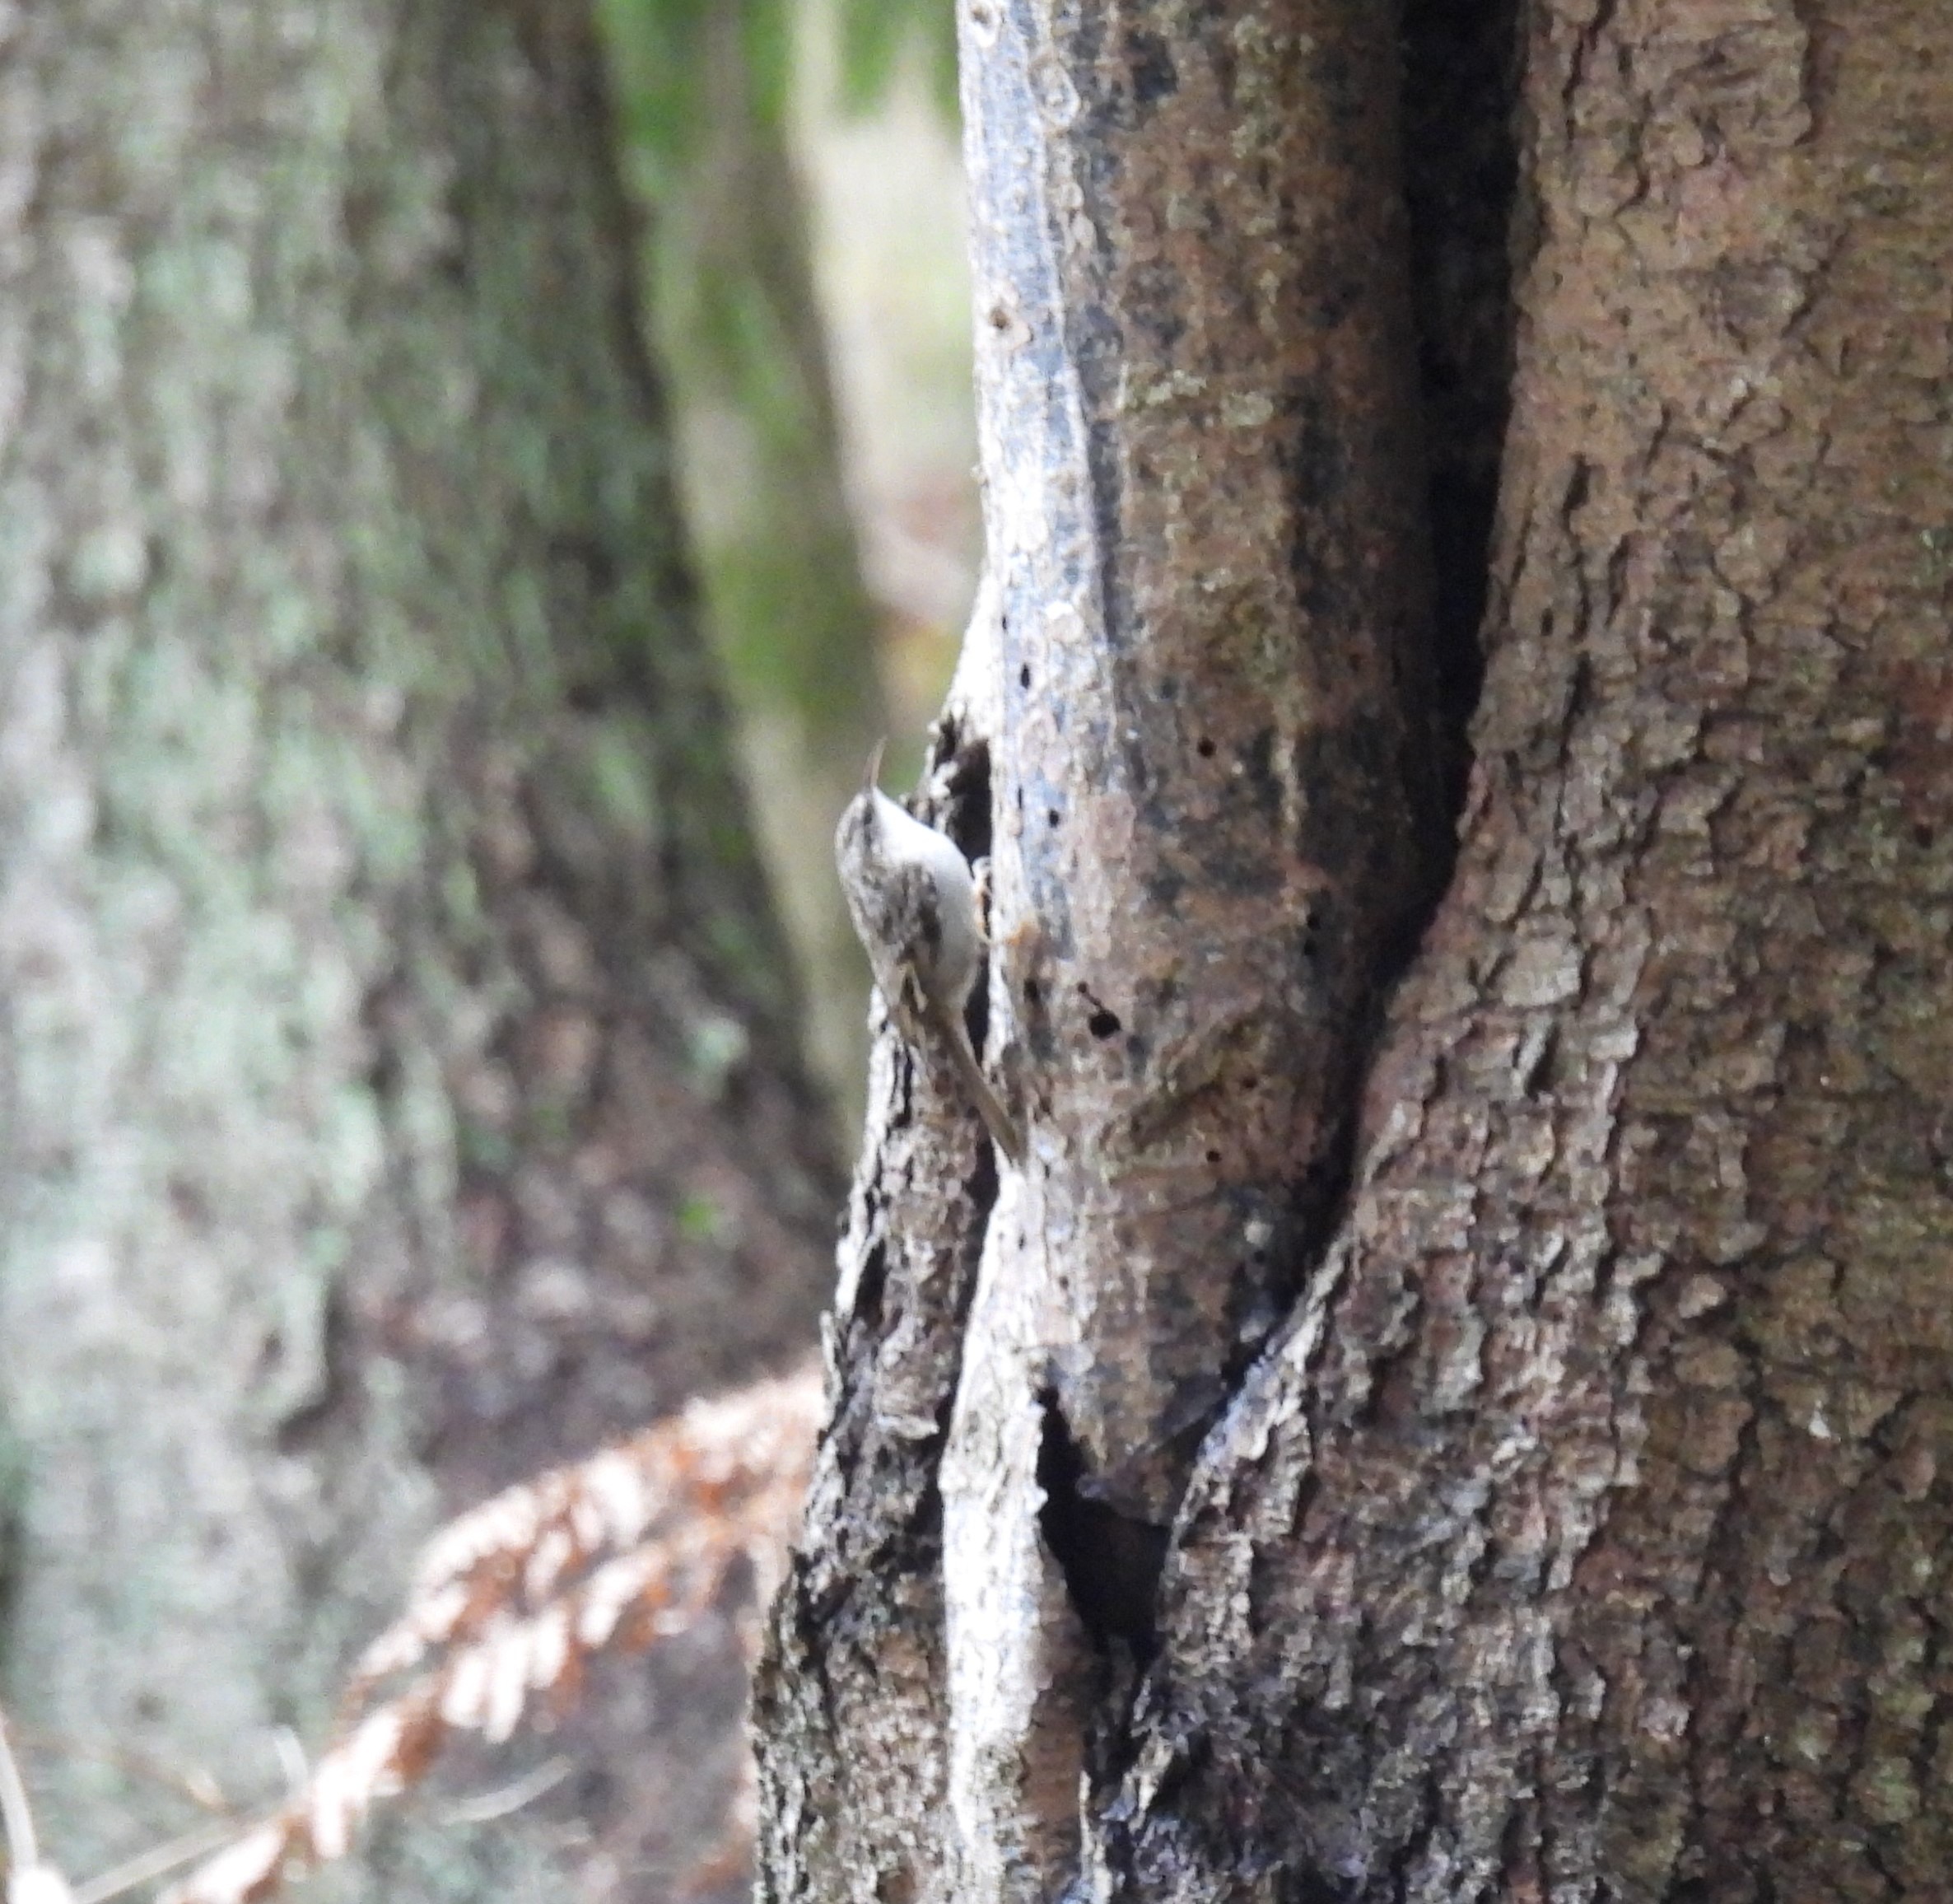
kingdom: Animalia
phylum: Chordata
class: Aves
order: Passeriformes
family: Certhiidae
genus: Certhia
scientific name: Certhia brachydactyla
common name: Korttået træløber
